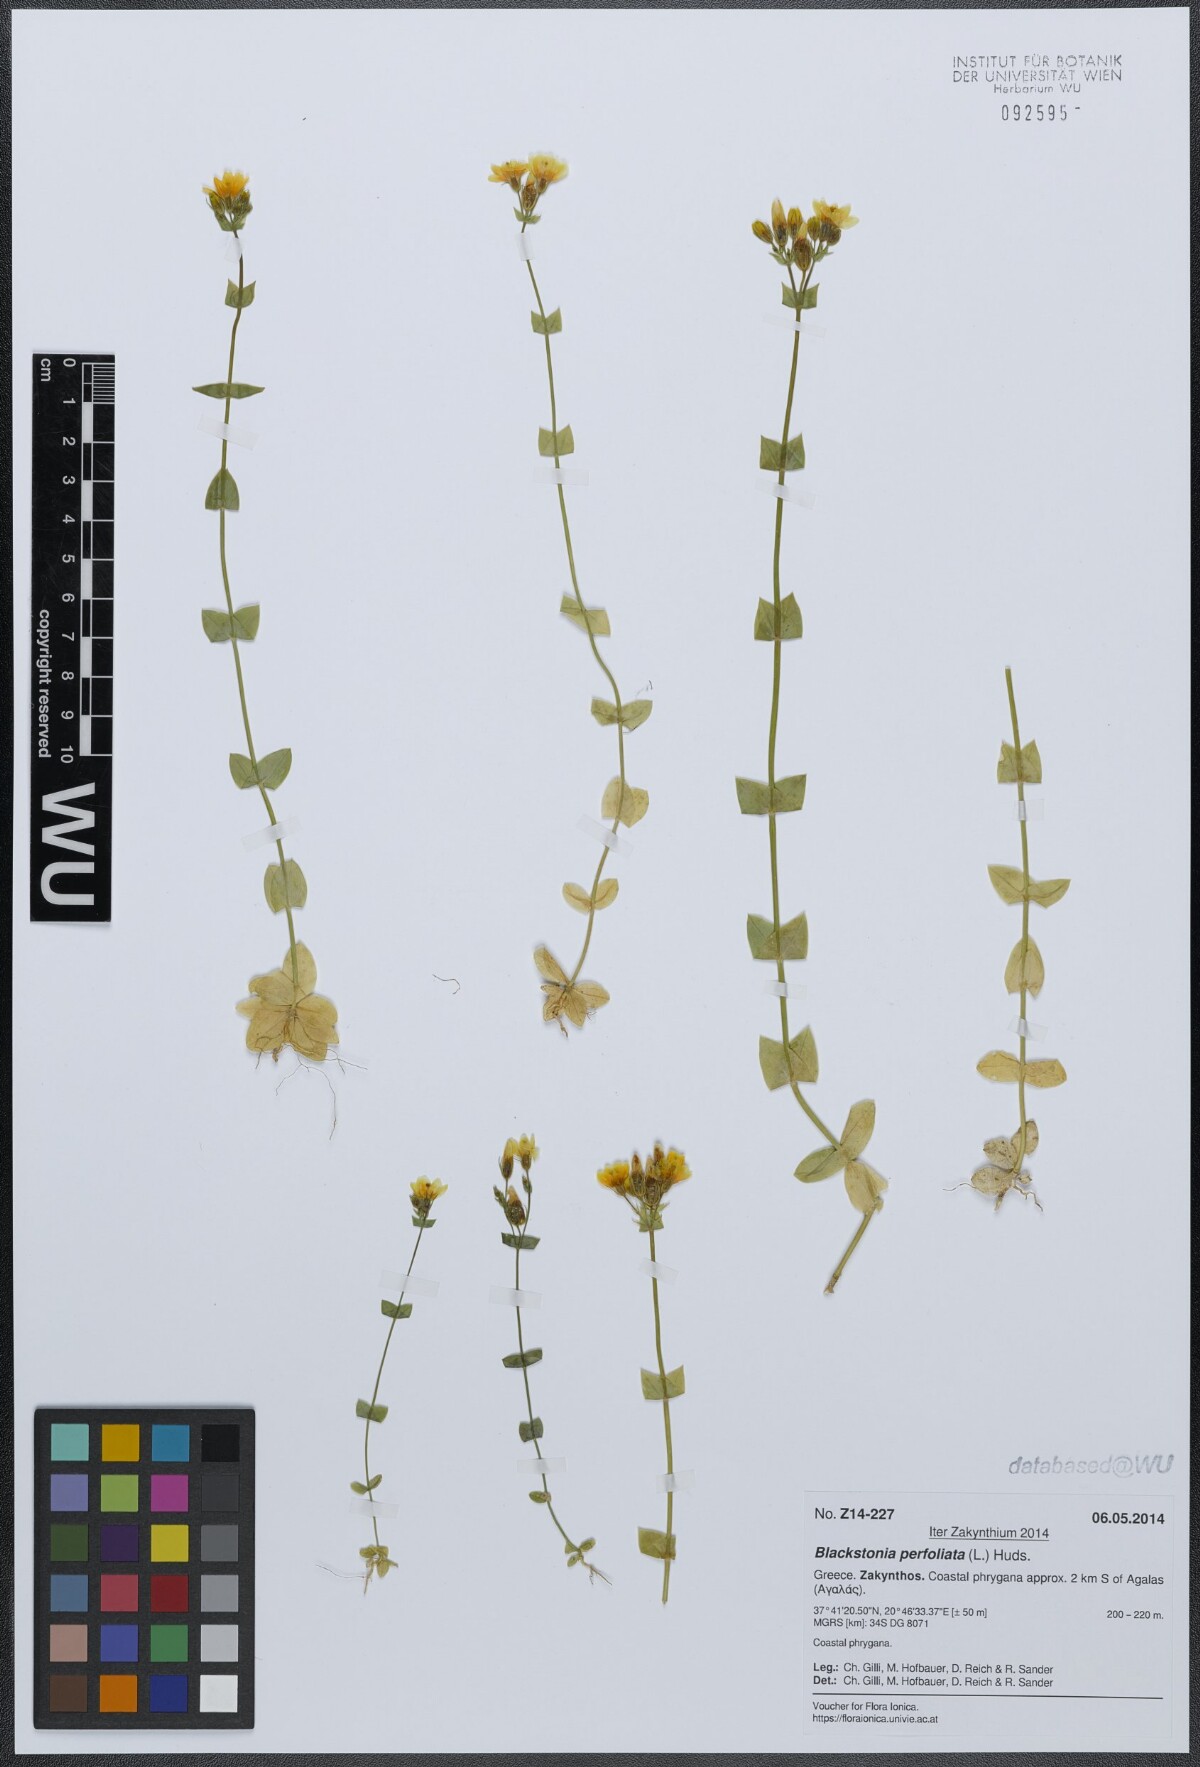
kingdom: Plantae
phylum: Tracheophyta
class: Magnoliopsida
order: Gentianales
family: Gentianaceae
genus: Blackstonia
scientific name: Blackstonia perfoliata
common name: Yellow-wort
